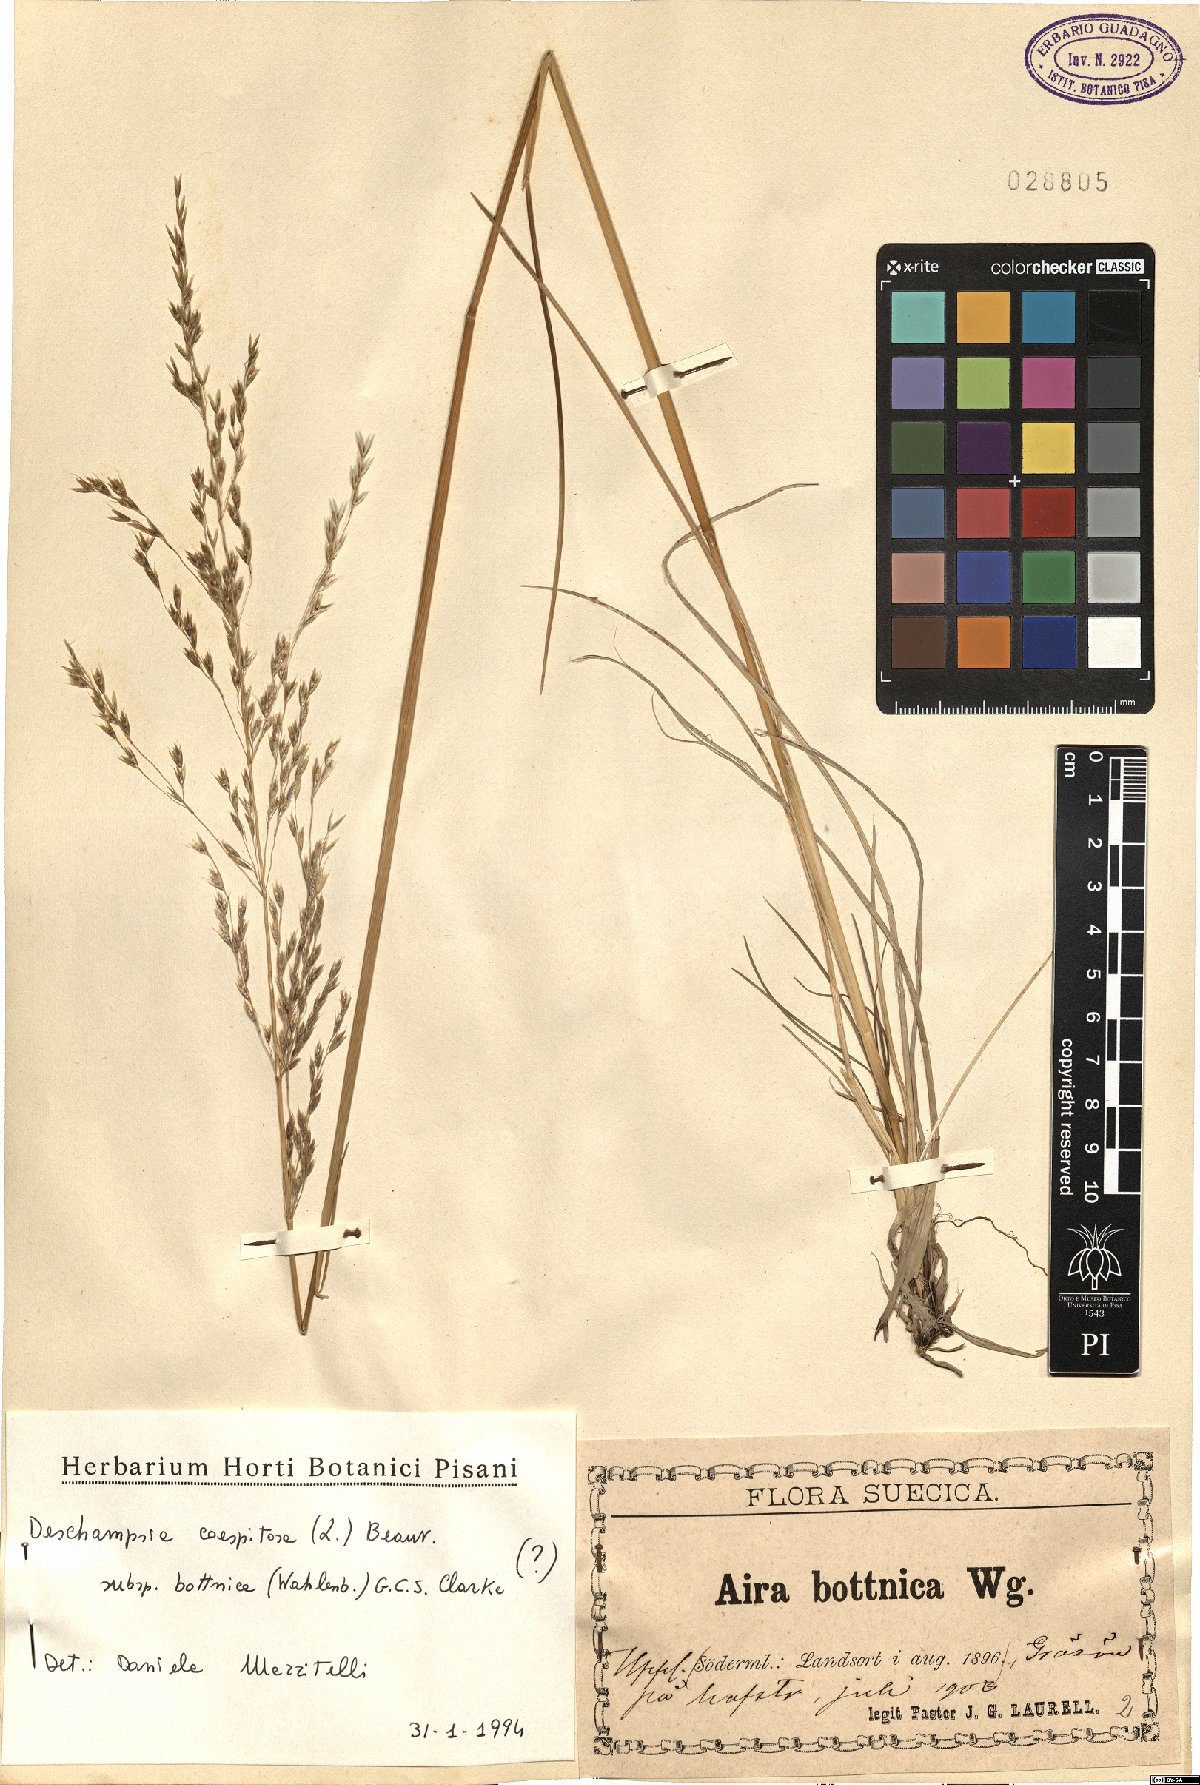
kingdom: Plantae
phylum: Tracheophyta
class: Liliopsida
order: Poales
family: Poaceae
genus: Deschampsia
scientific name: Deschampsia cespitosa
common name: Tufted hair-grass
